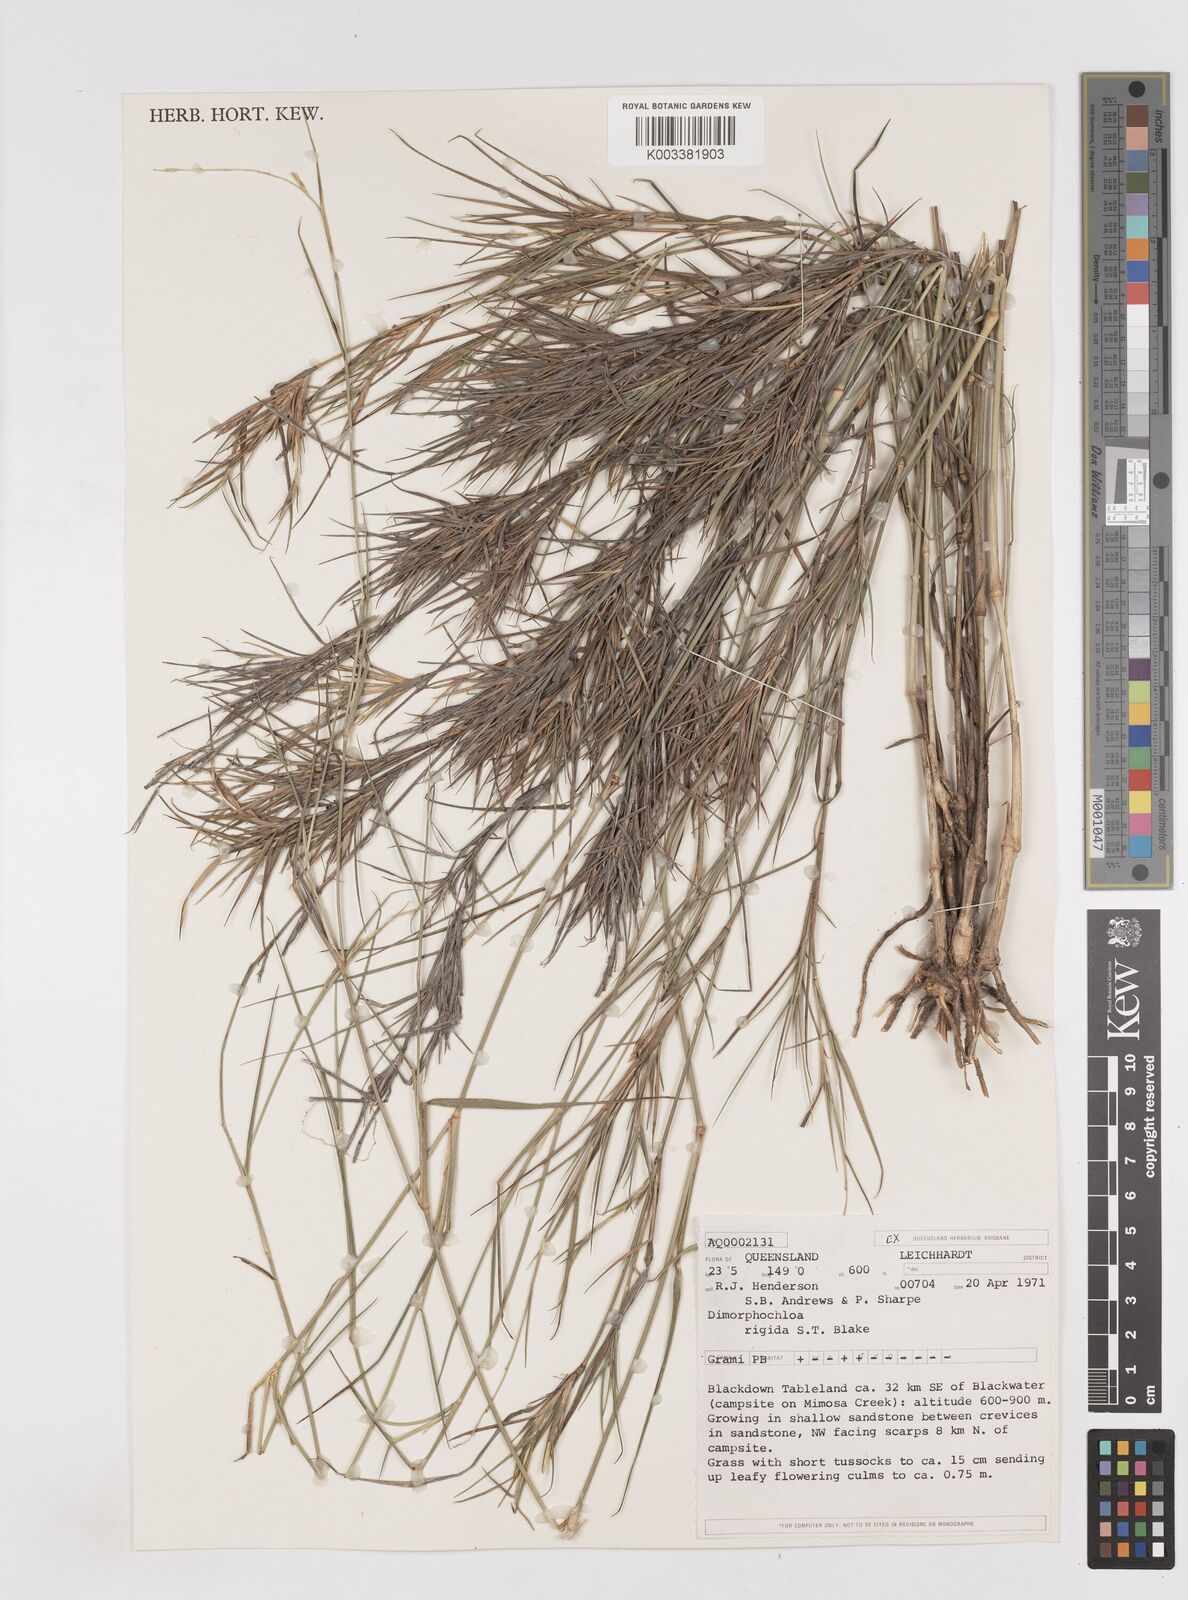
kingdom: Plantae
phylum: Tracheophyta
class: Liliopsida
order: Poales
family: Poaceae
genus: Dimorphochloa
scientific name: Dimorphochloa rigida
